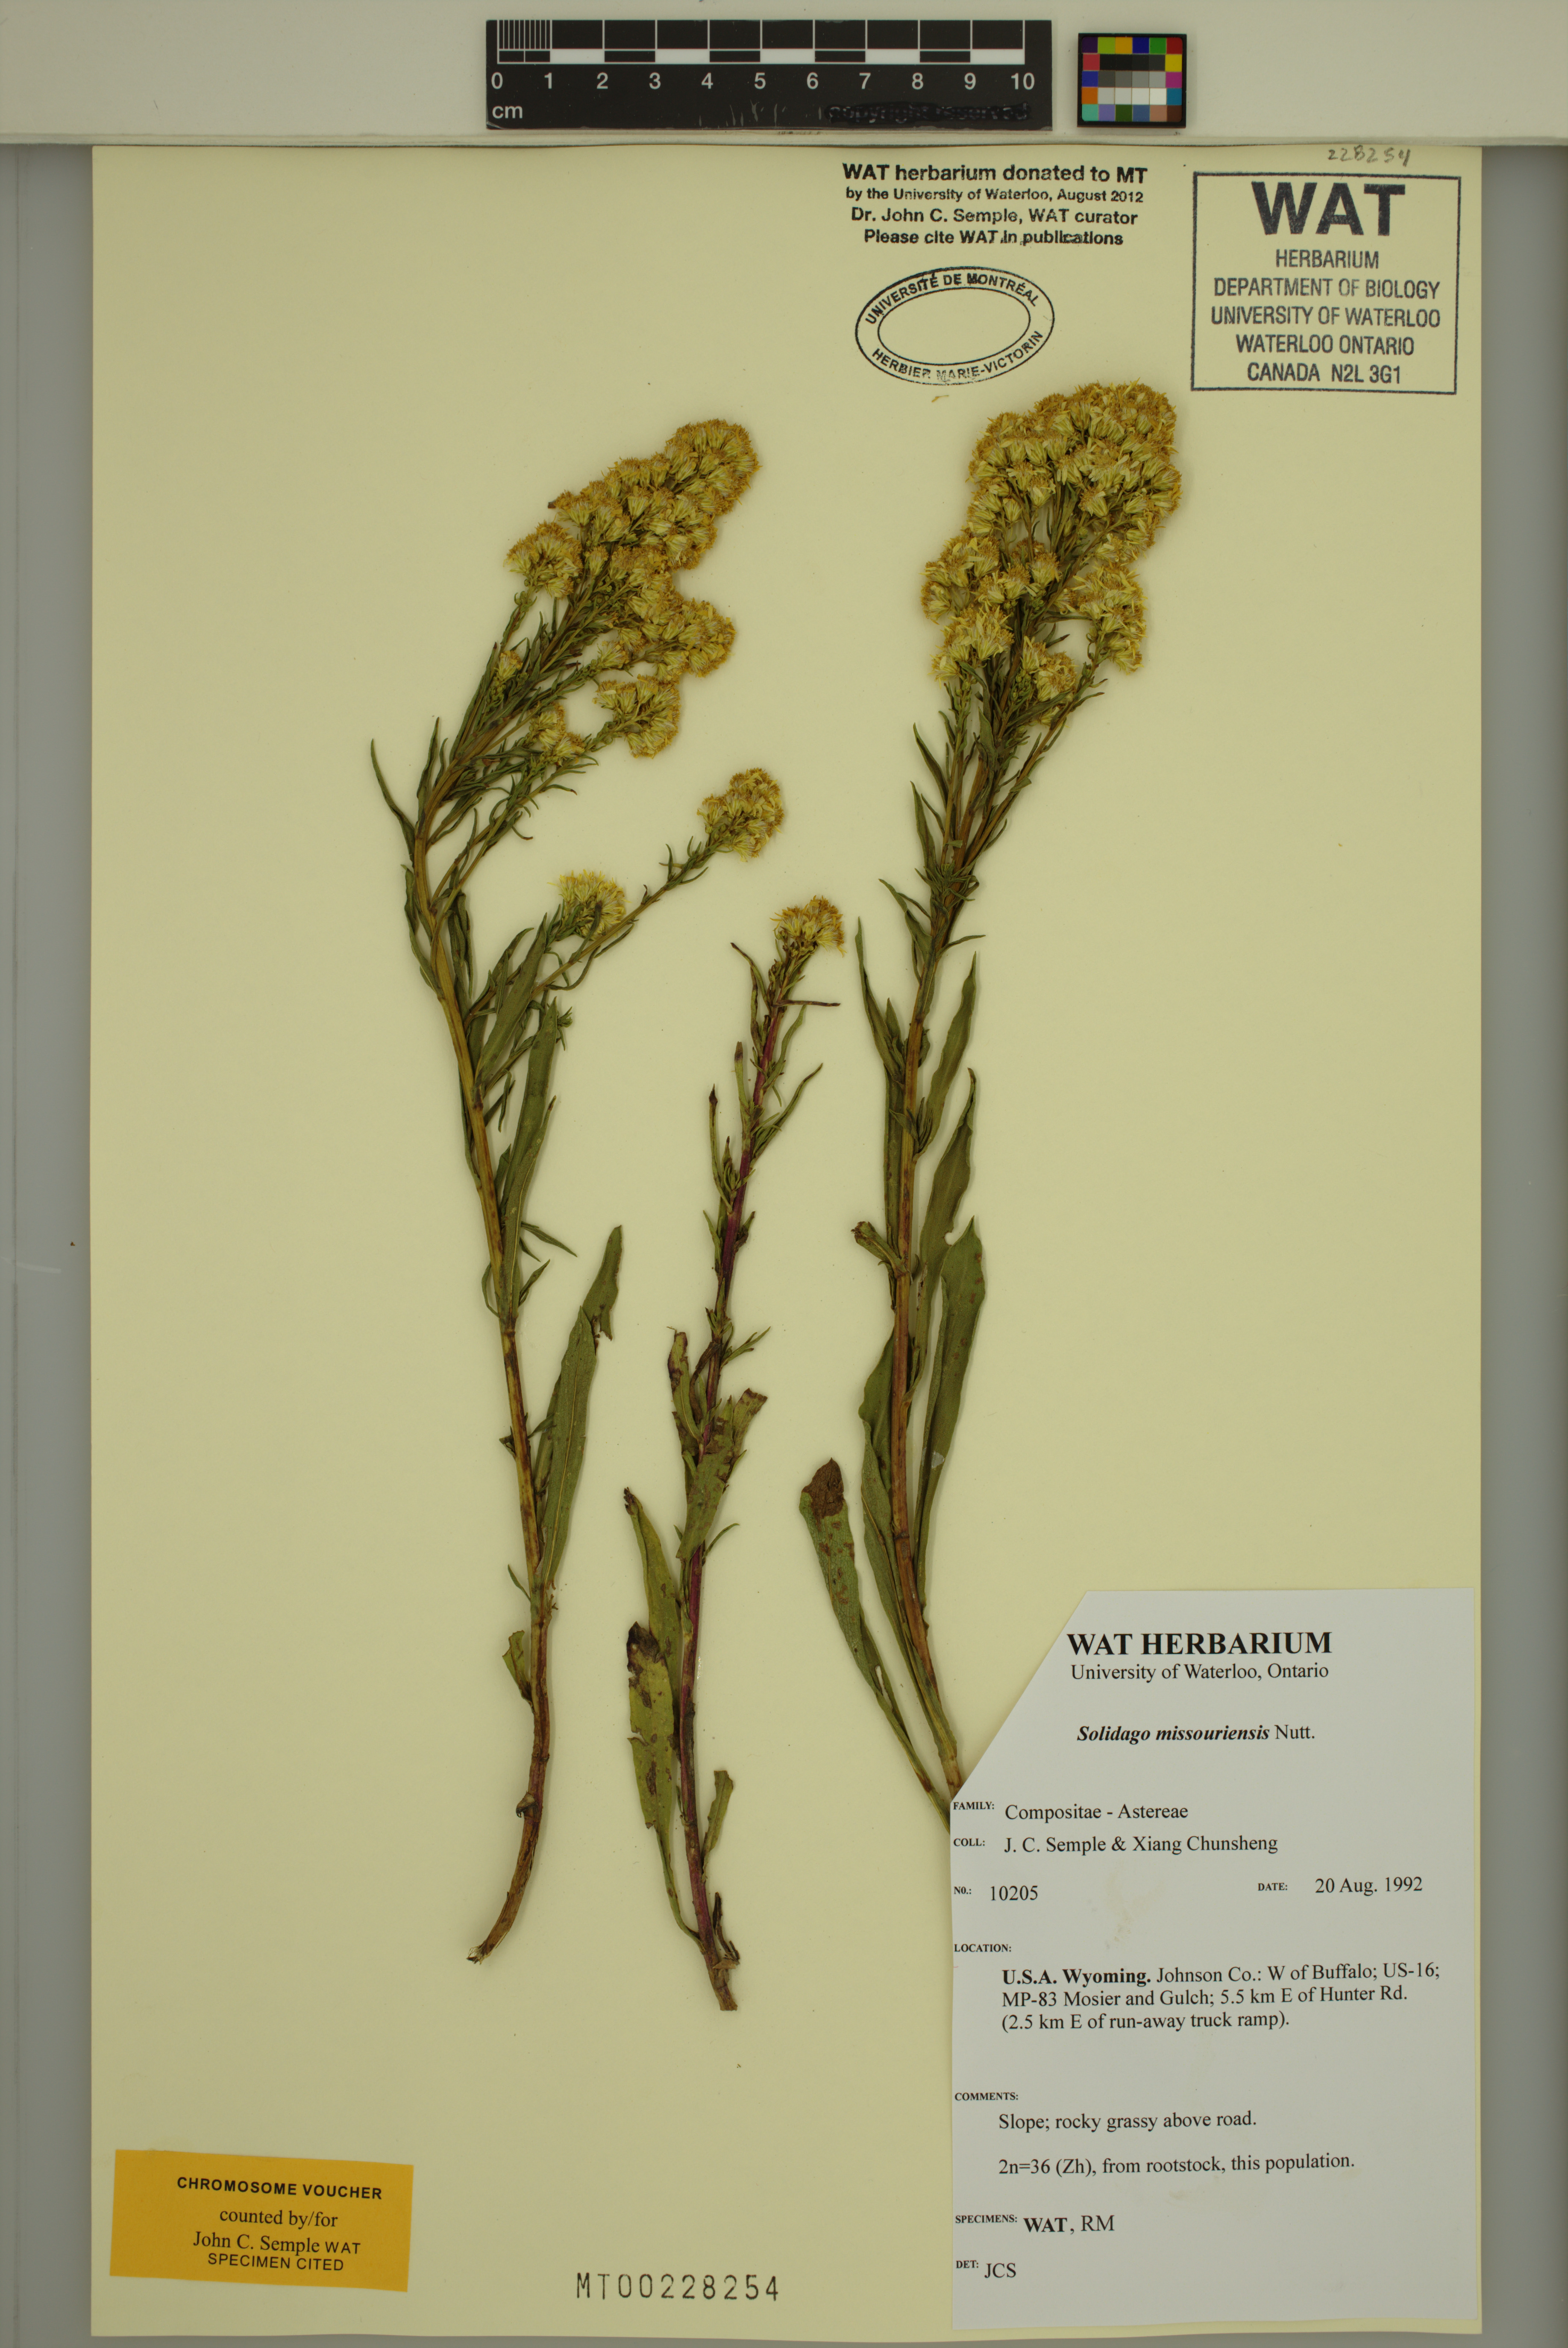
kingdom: Plantae
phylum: Tracheophyta
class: Magnoliopsida
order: Asterales
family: Asteraceae
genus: Solidago
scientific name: Solidago missouriensis
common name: Prairie goldenrod
